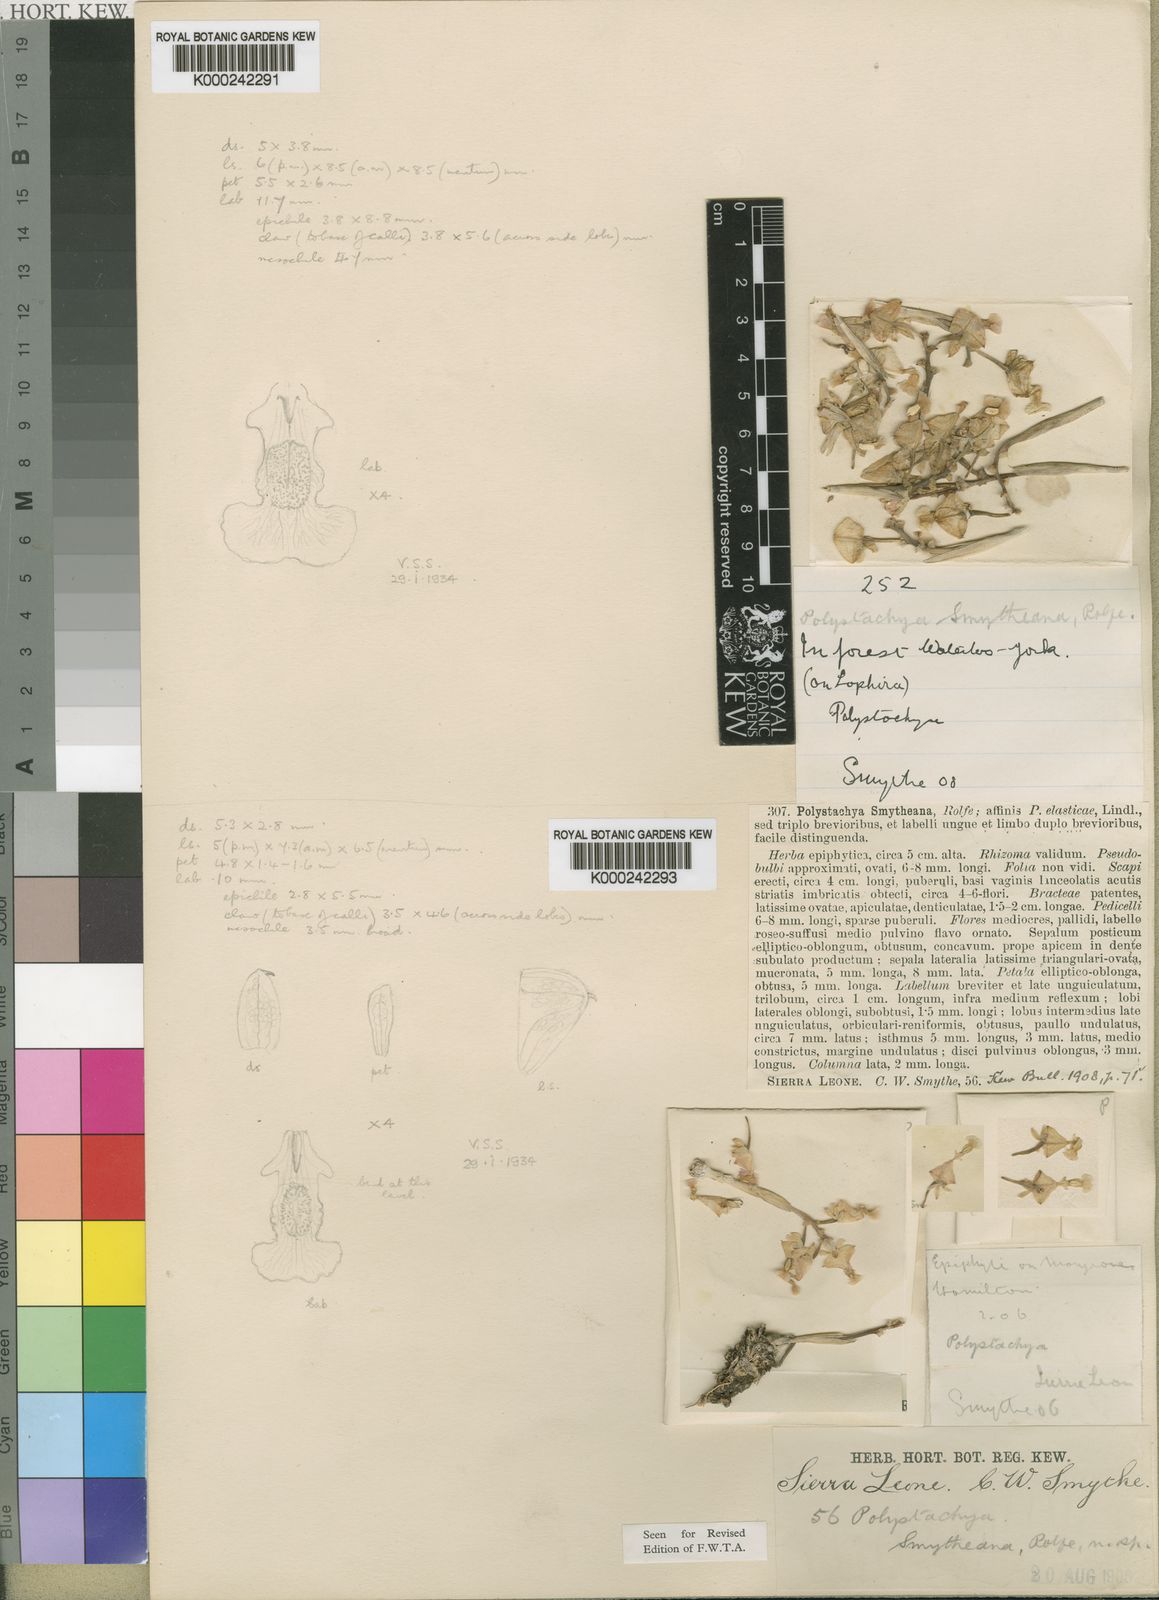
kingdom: Plantae
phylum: Tracheophyta
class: Liliopsida
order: Asparagales
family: Orchidaceae
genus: Polystachya
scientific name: Polystachya reflexa
